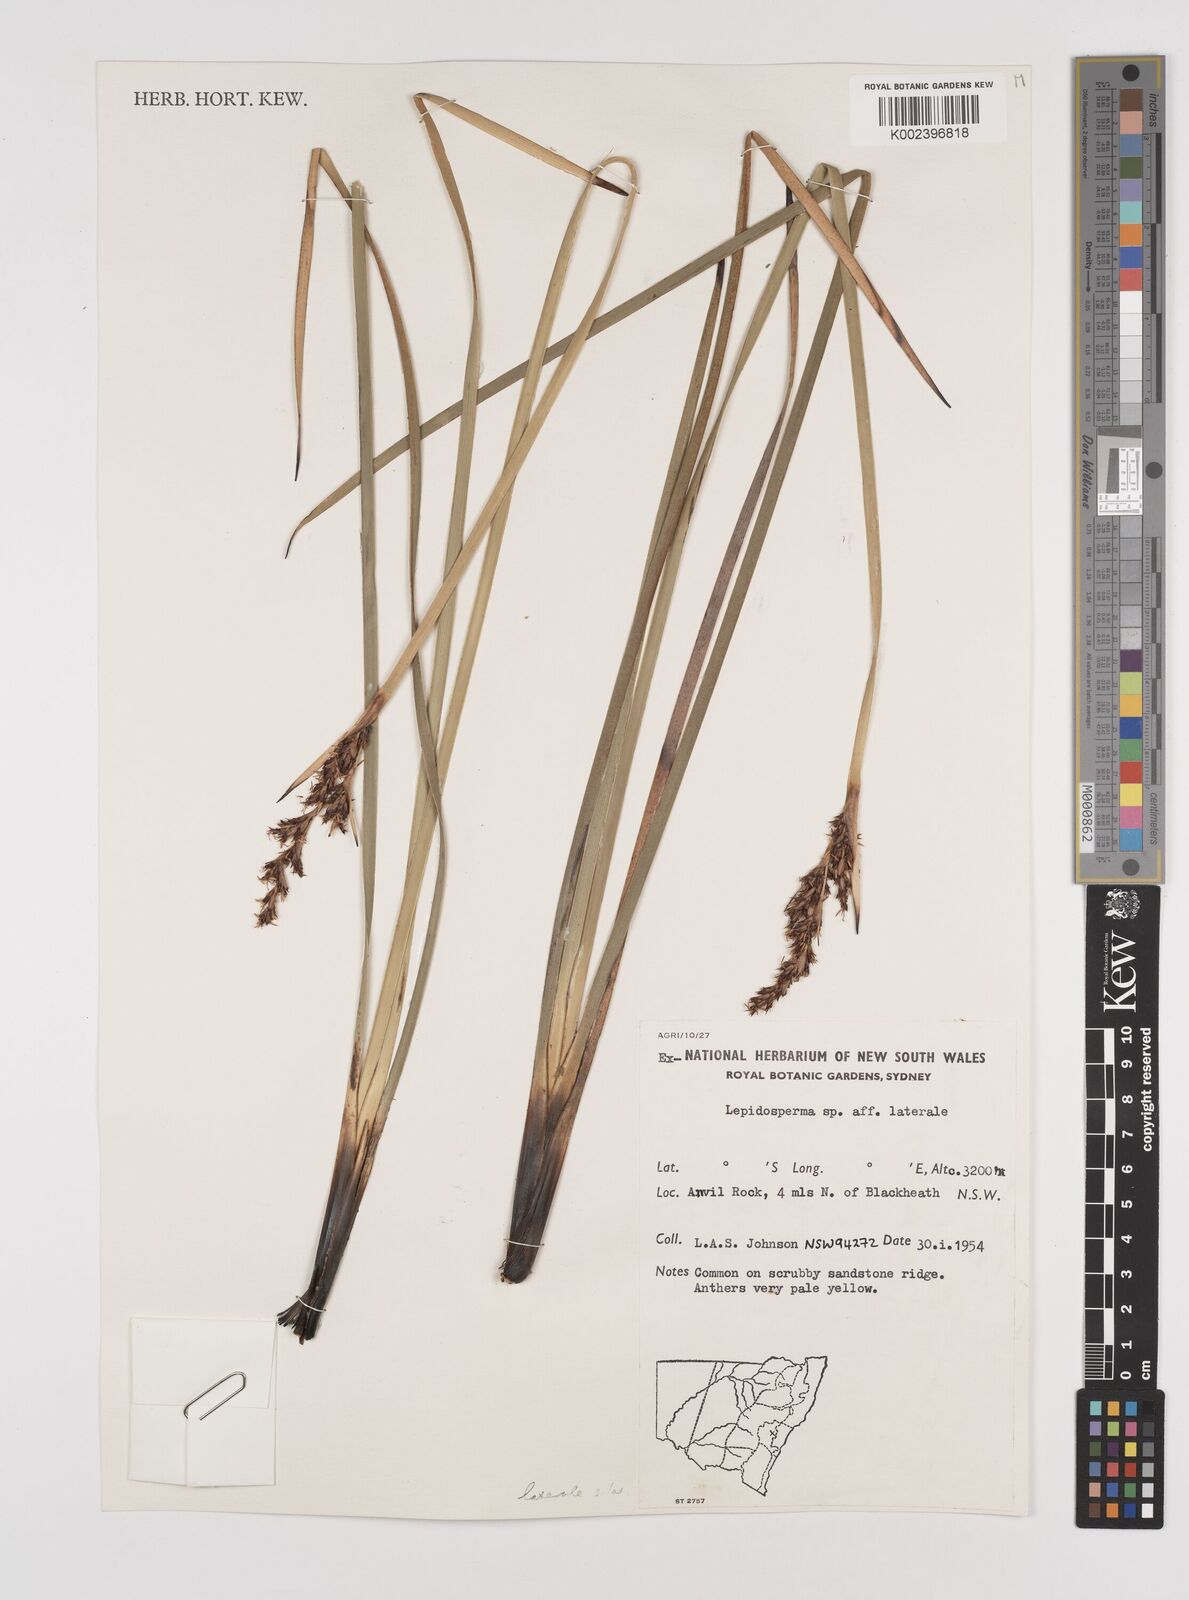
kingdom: Plantae
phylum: Tracheophyta
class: Liliopsida
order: Poales
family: Cyperaceae
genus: Lepidosperma
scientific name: Lepidosperma laterale
